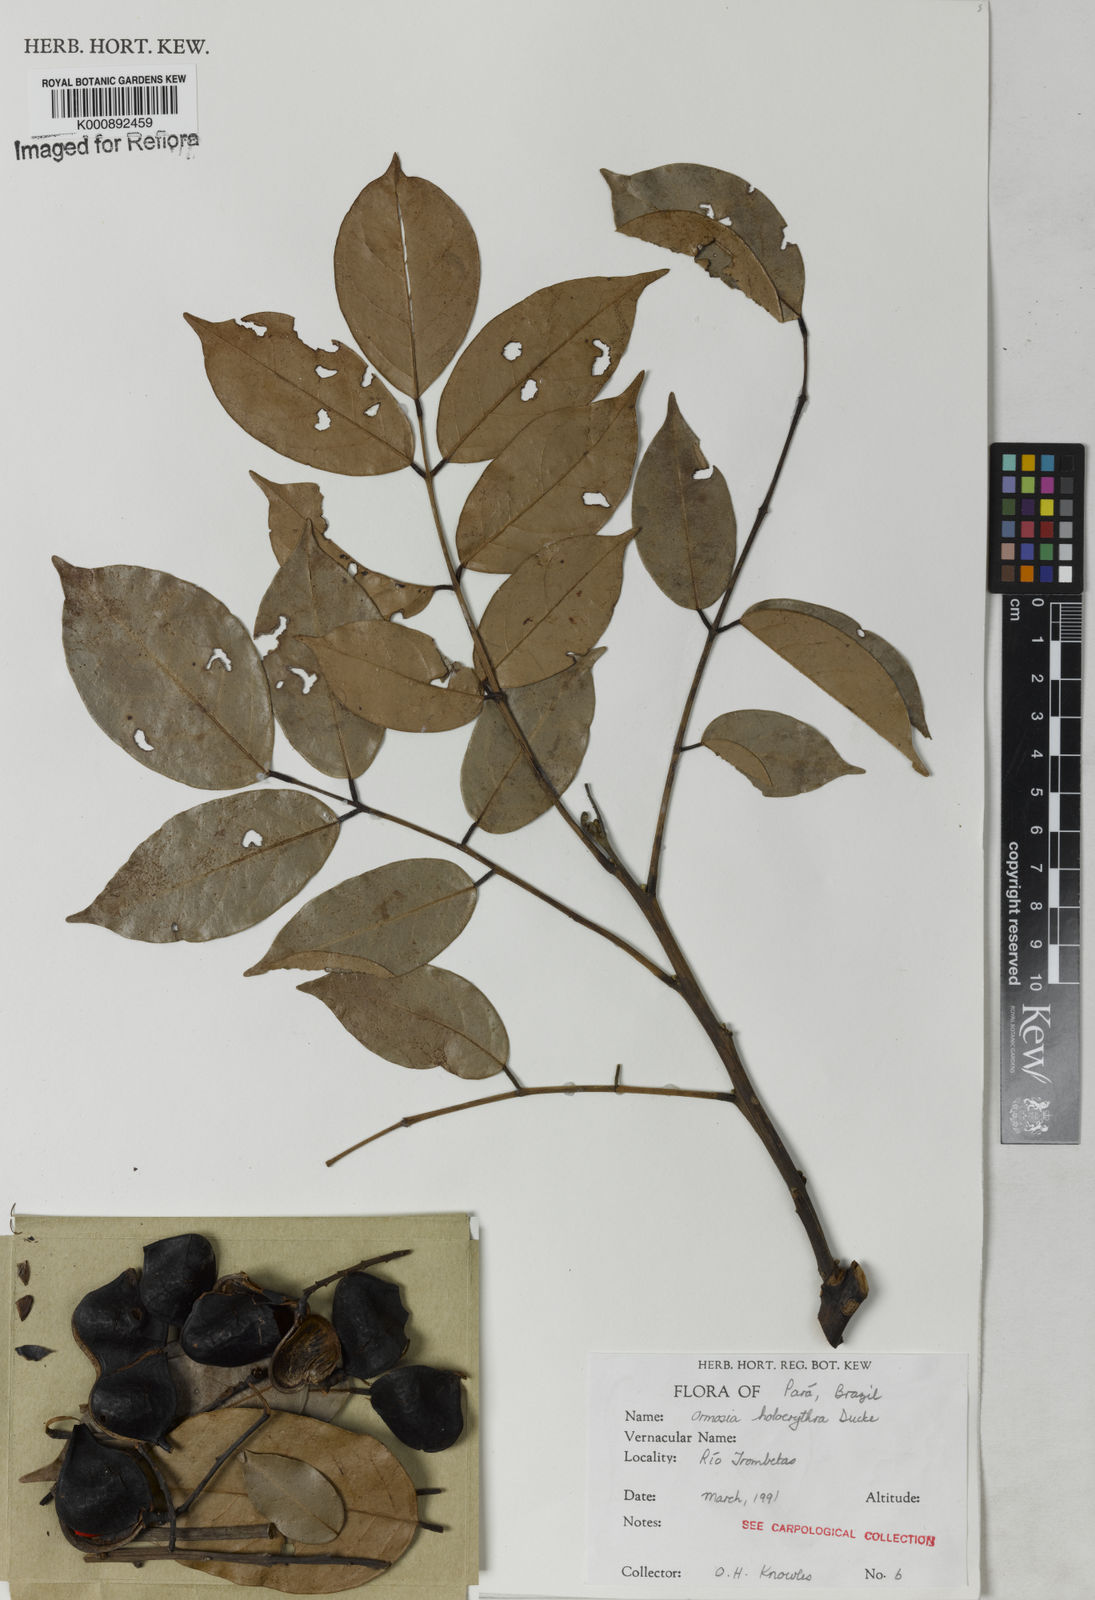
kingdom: Plantae
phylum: Tracheophyta
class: Magnoliopsida
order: Fabales
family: Fabaceae
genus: Ormosia
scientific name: Ormosia holerythra
